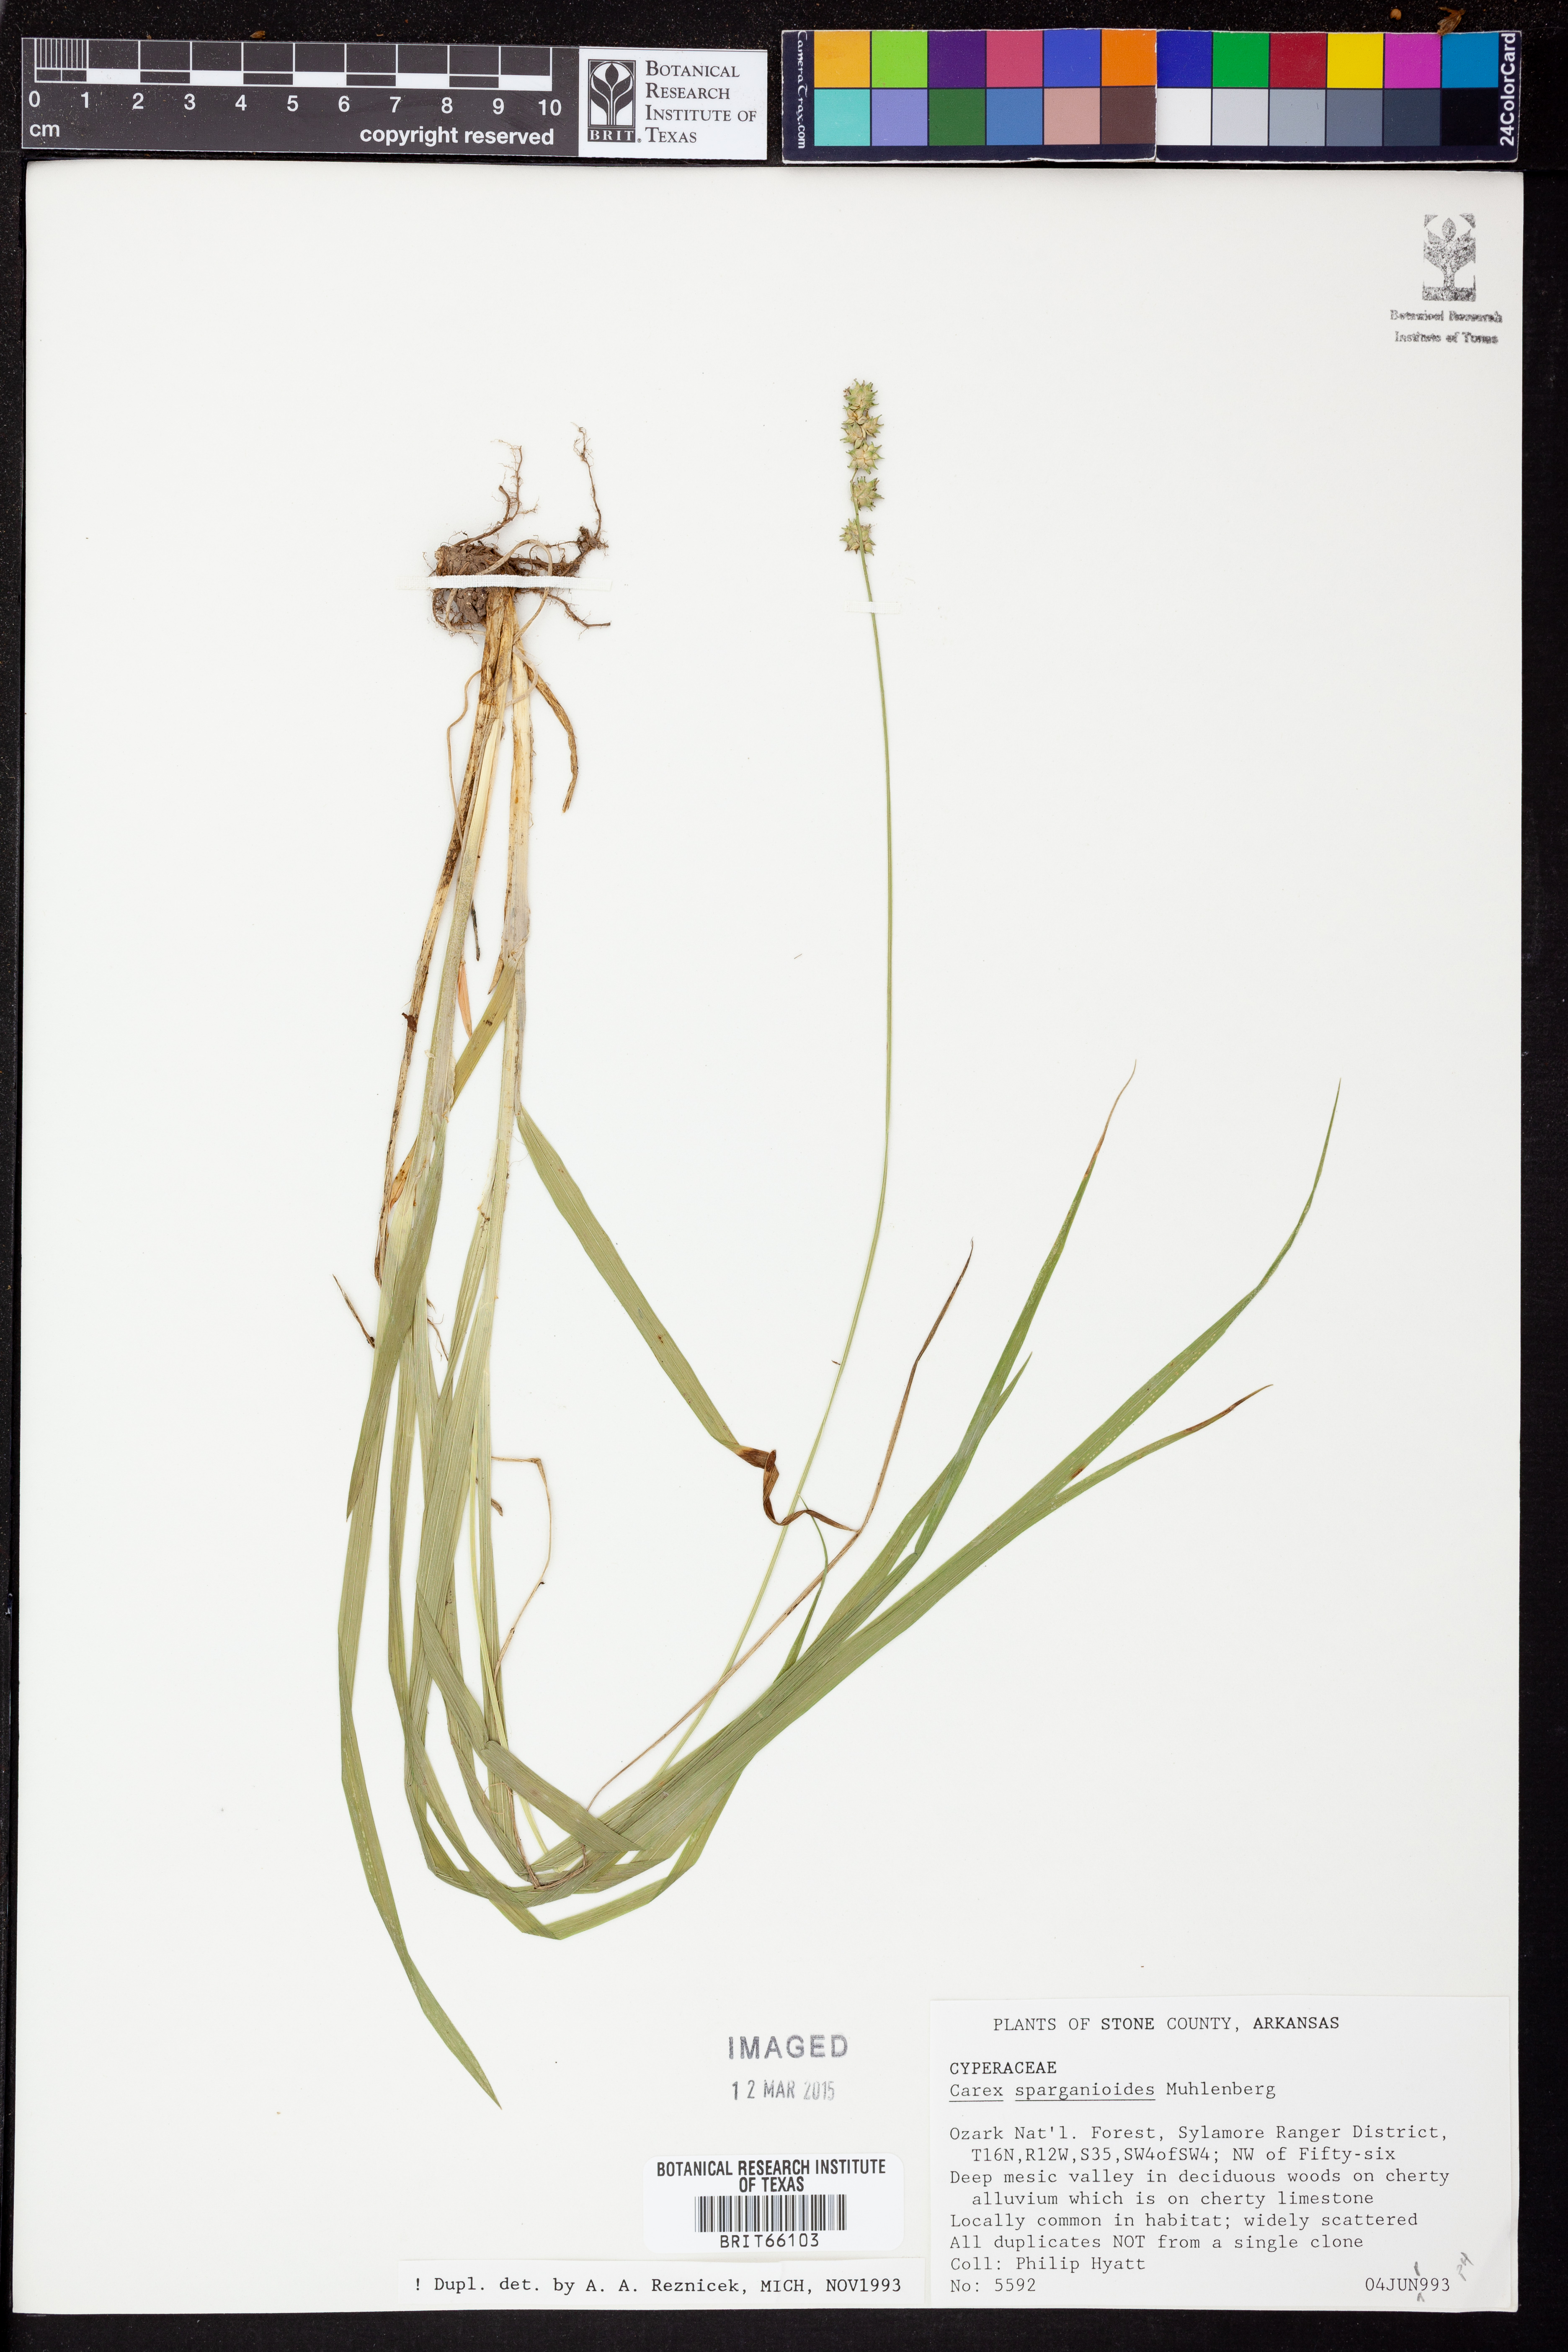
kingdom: Plantae
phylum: Tracheophyta
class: Liliopsida
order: Poales
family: Cyperaceae
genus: Carex
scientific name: Carex sparganioides
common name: Burreed sedge
